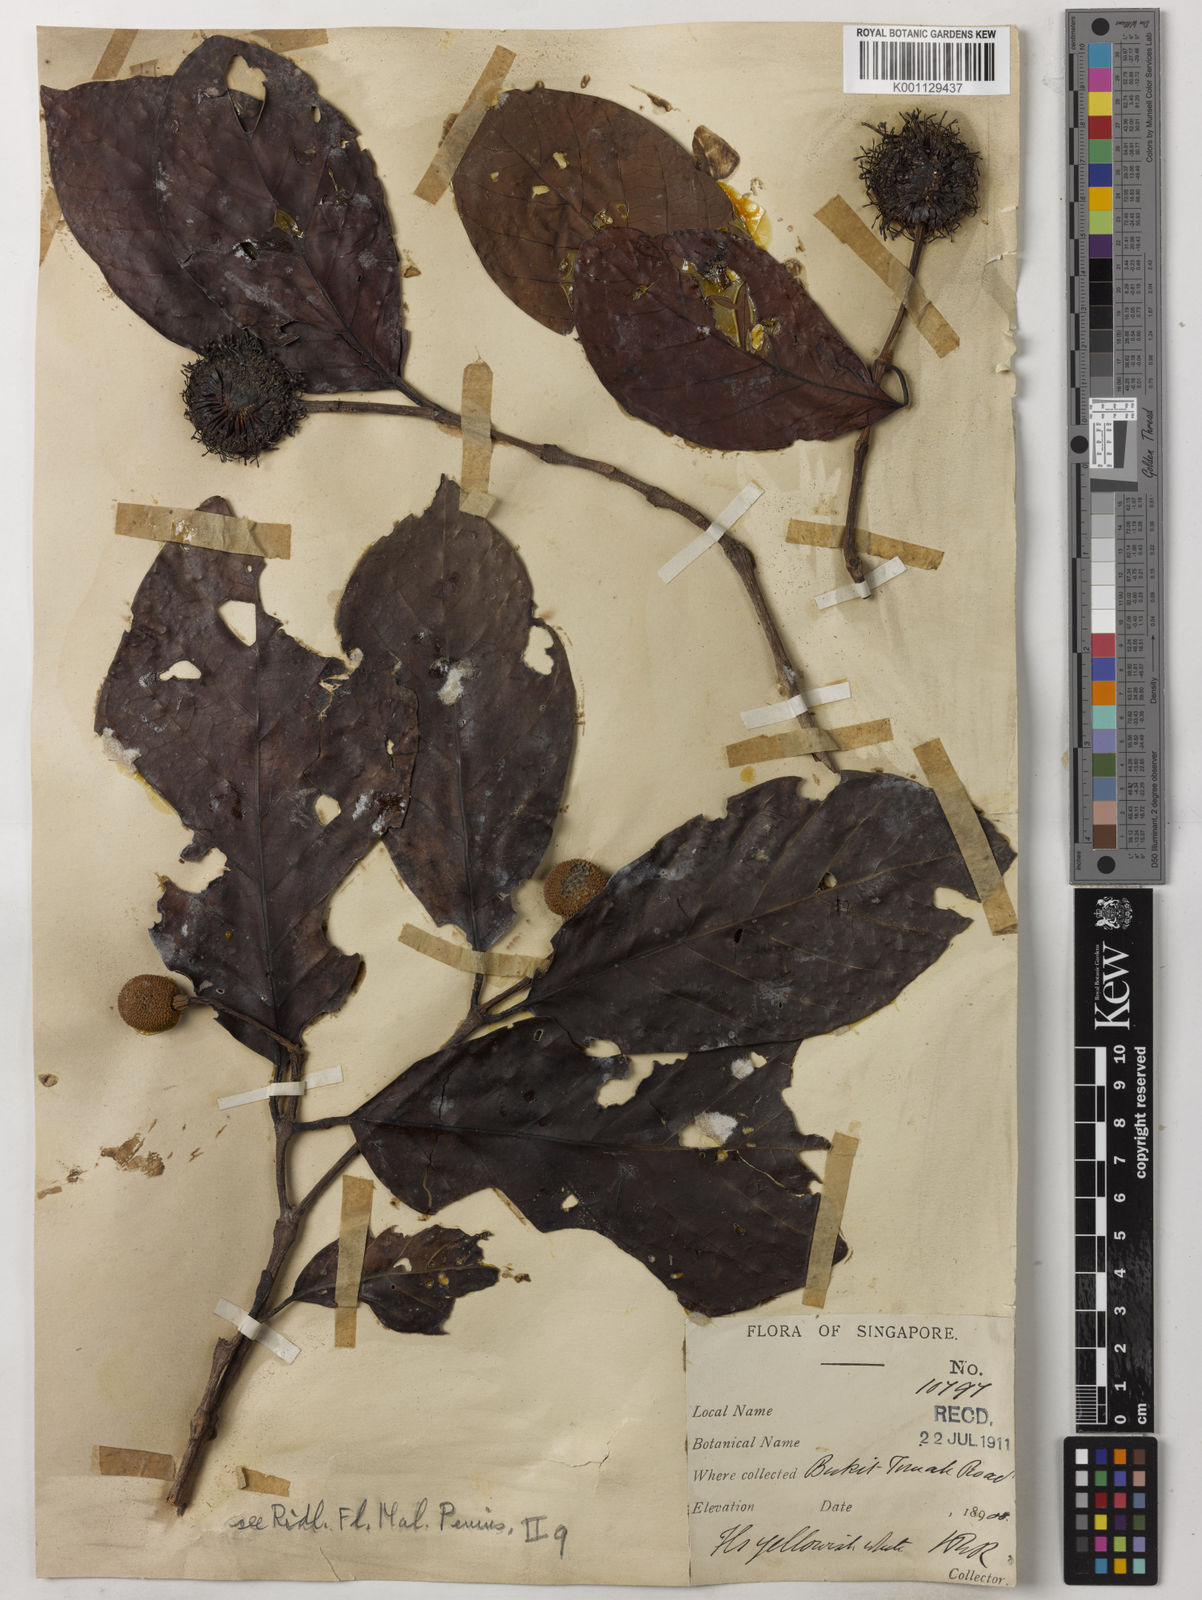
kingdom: Plantae
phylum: Tracheophyta
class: Magnoliopsida
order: Gentianales
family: Rubiaceae
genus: Neonauclea
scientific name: Neonauclea calycina
